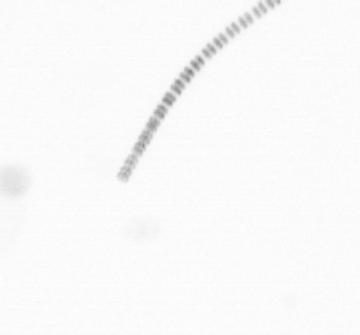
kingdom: Chromista
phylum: Ochrophyta
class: Bacillariophyceae
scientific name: Bacillariophyceae
